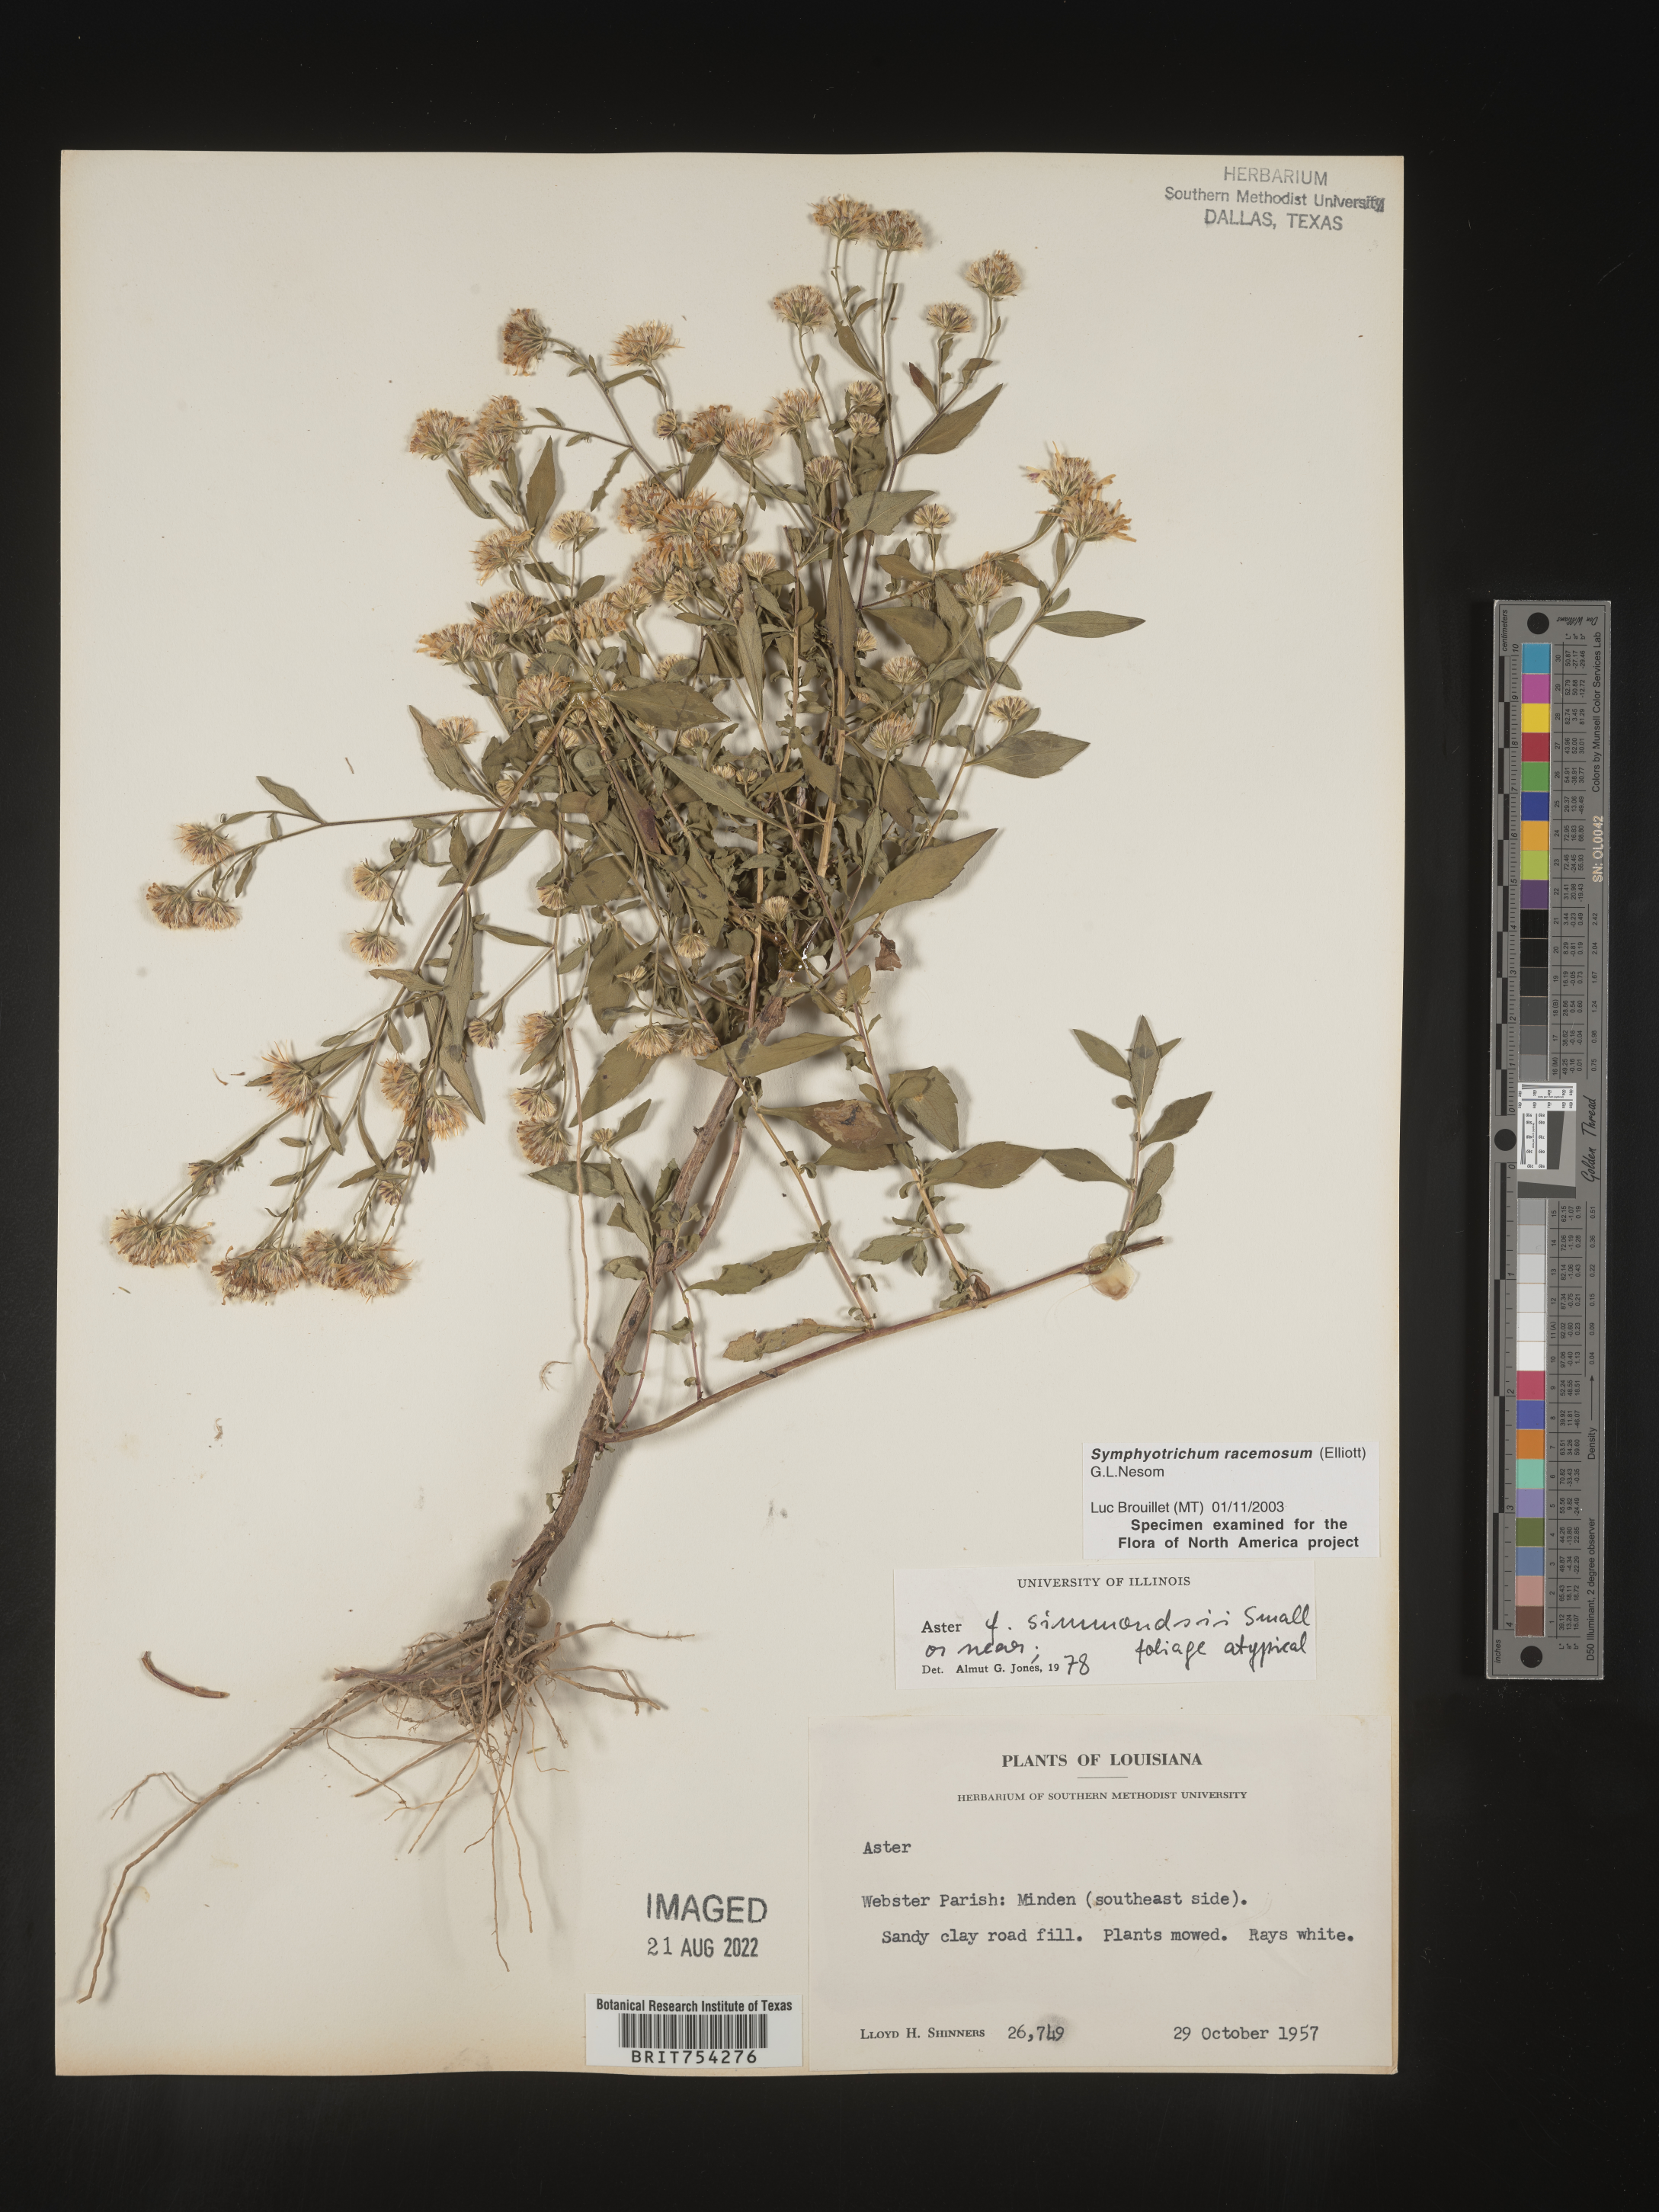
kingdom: Plantae
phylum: Tracheophyta
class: Magnoliopsida
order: Asterales
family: Asteraceae
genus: Symphyotrichum
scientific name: Symphyotrichum racemosum
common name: Small white aster
